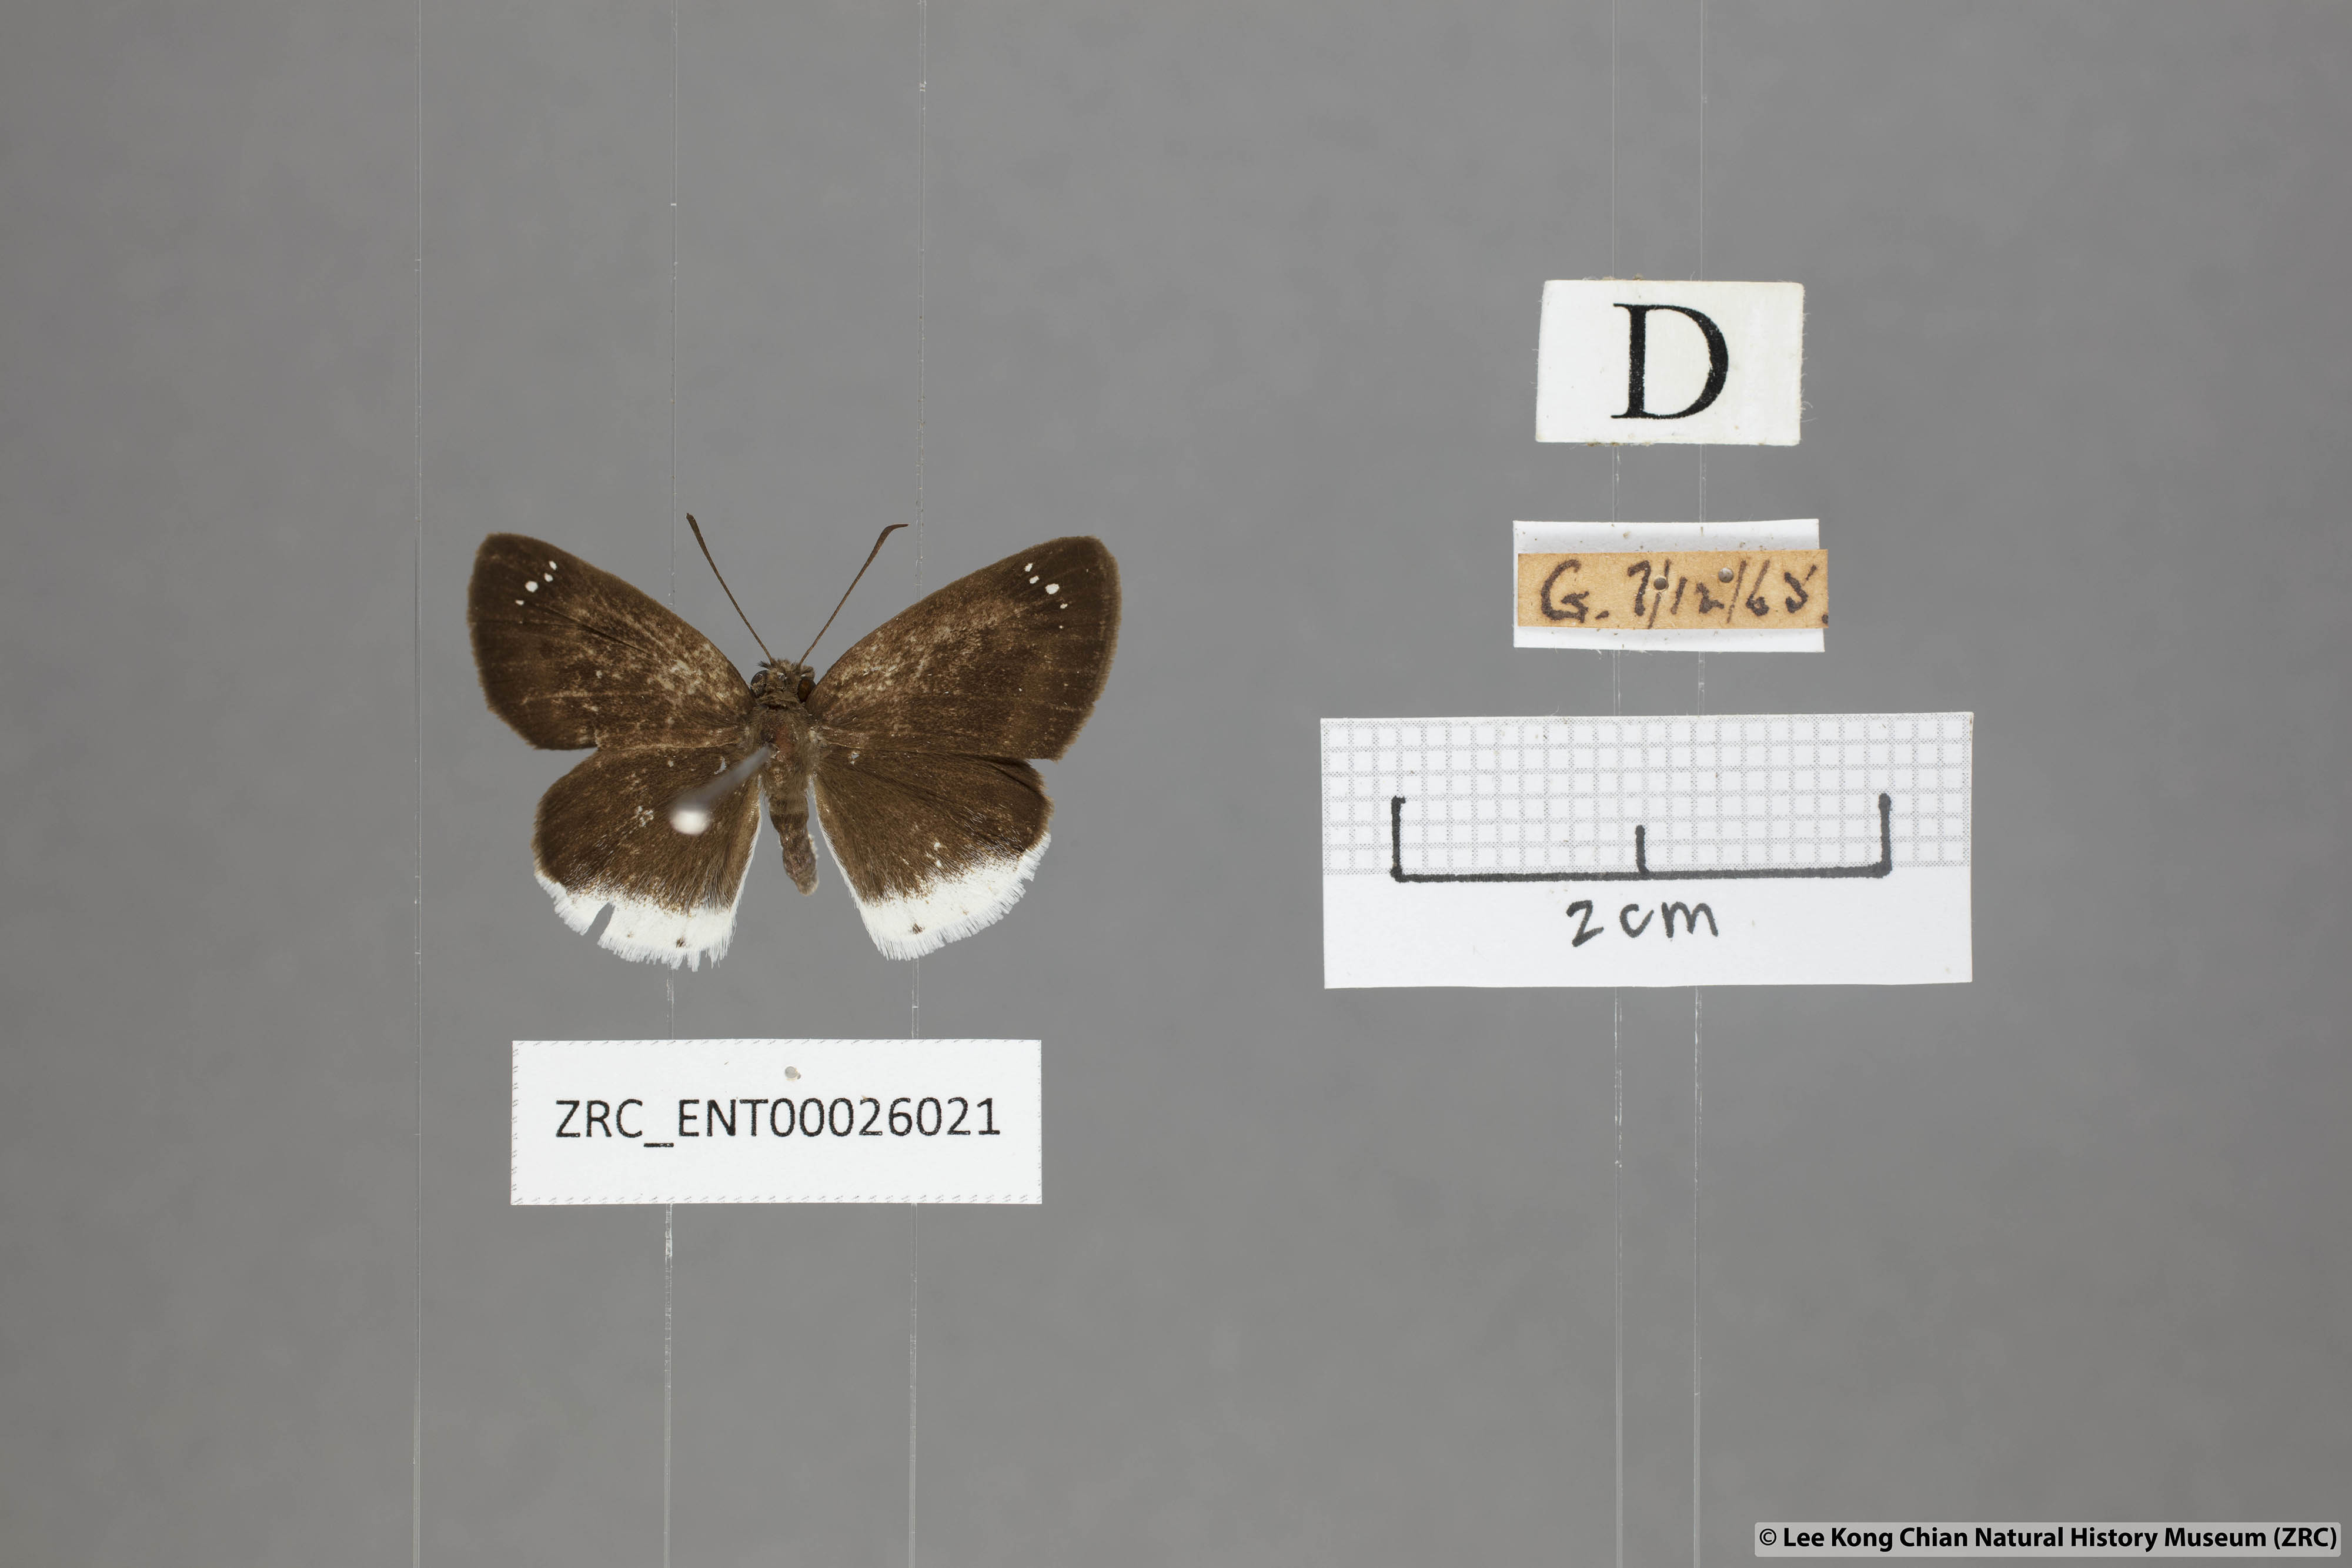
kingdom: Animalia
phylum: Arthropoda
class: Insecta
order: Lepidoptera
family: Hesperiidae
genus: Tagiades
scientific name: Tagiades lavata
